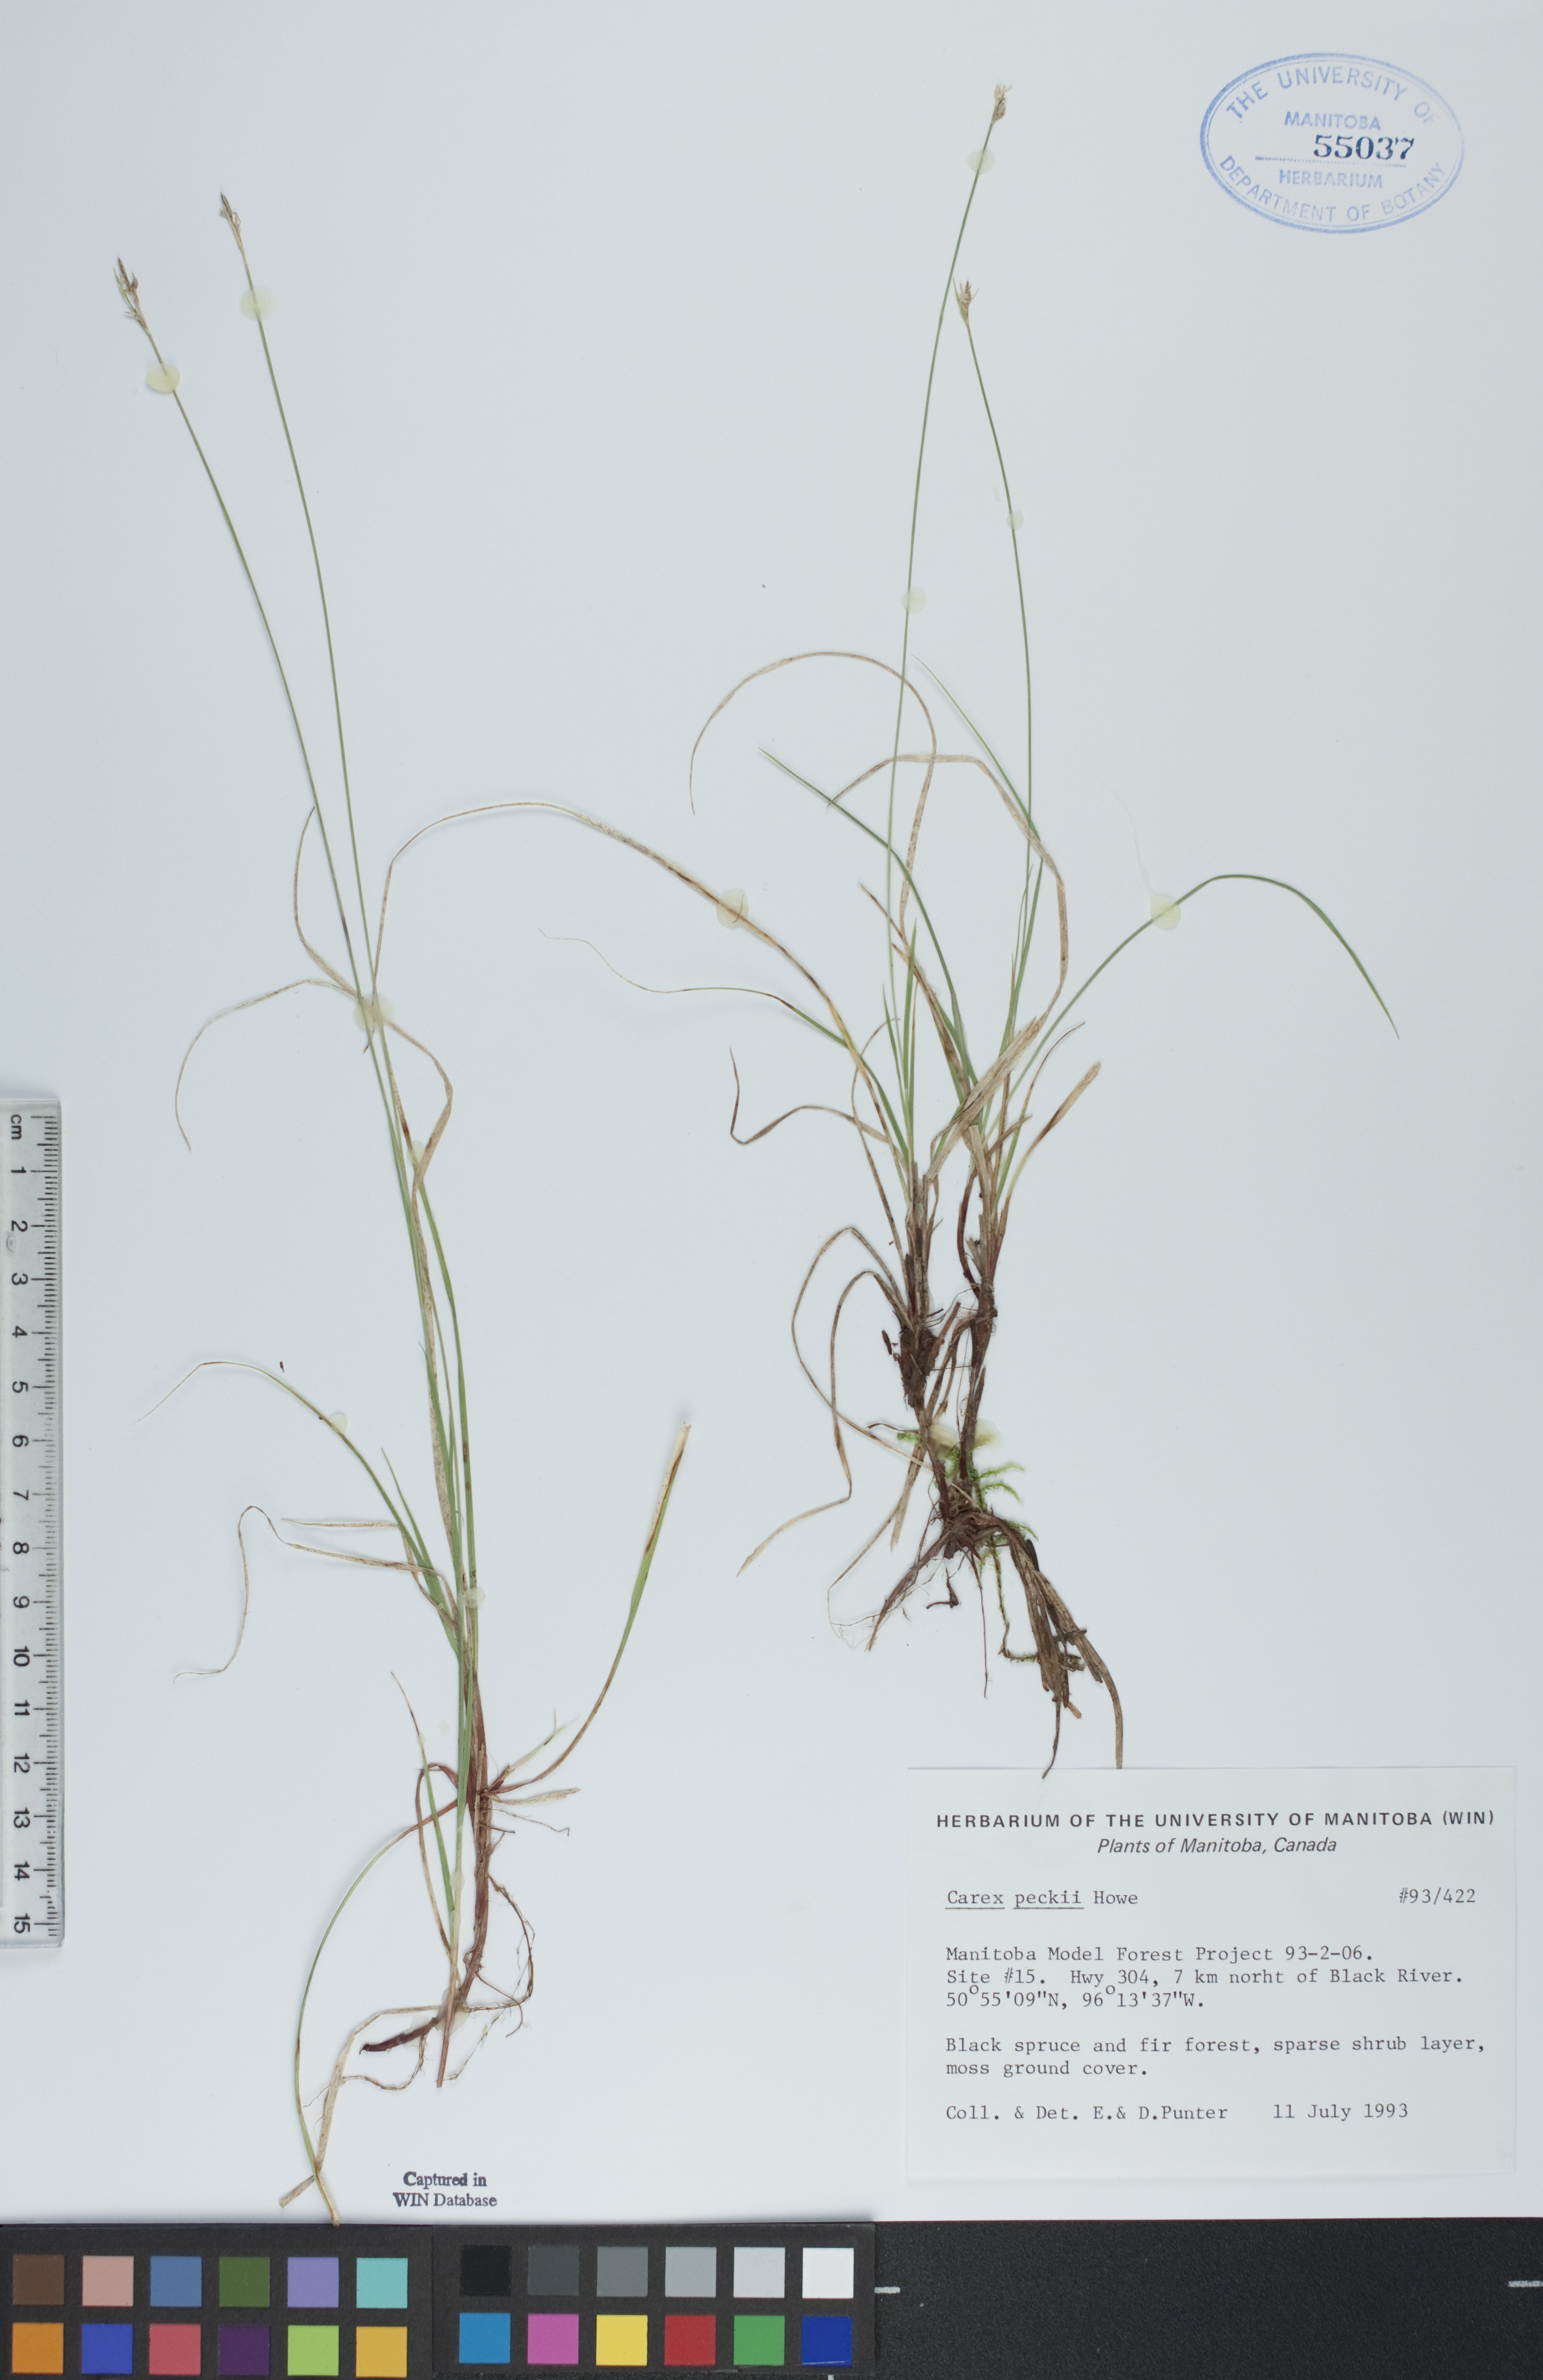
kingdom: Plantae
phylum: Tracheophyta
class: Liliopsida
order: Poales
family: Cyperaceae
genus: Carex
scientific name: Carex peckii
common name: Peck's oak sedge
